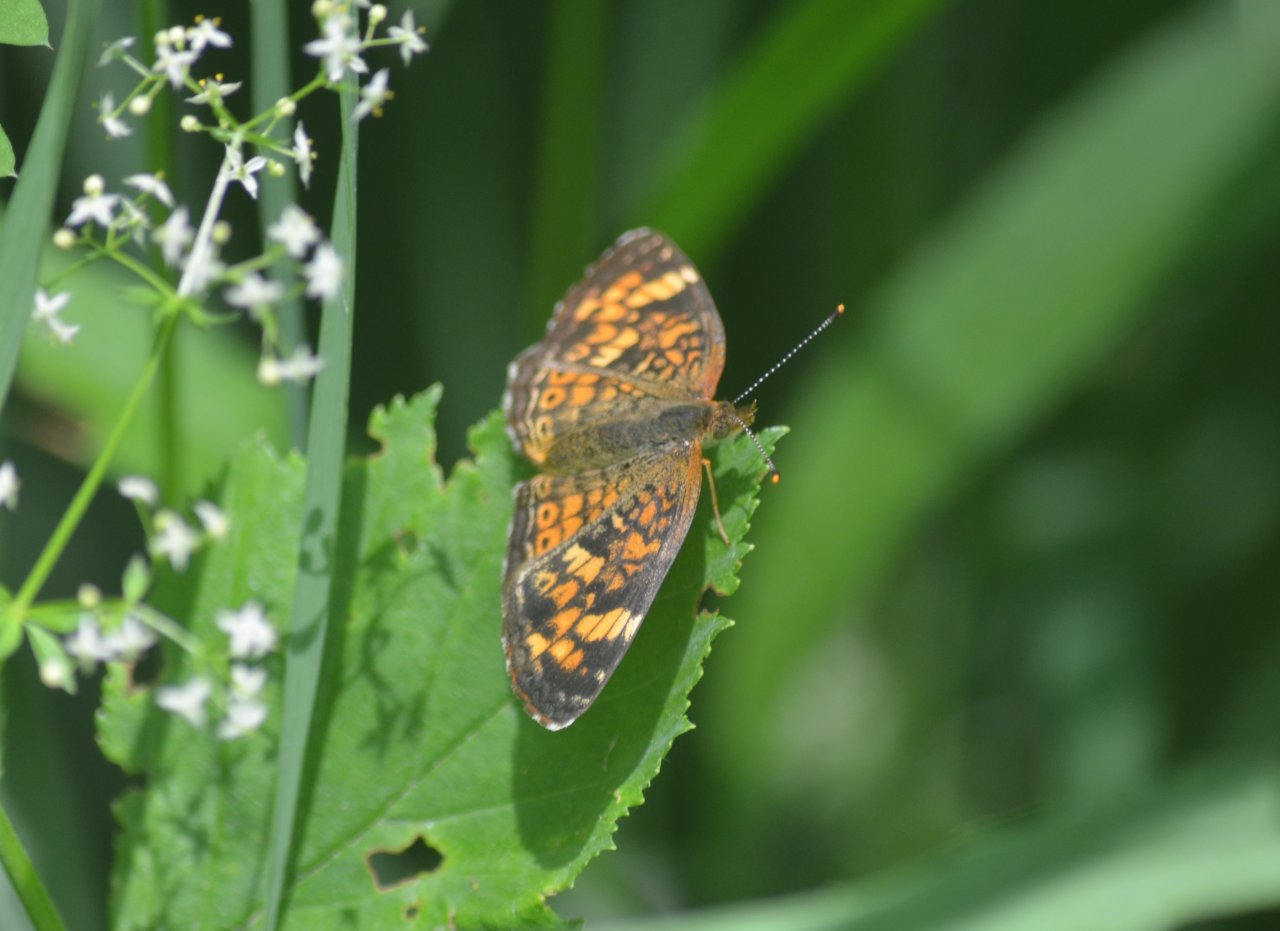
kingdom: Animalia
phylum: Arthropoda
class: Insecta
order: Lepidoptera
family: Nymphalidae
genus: Phyciodes
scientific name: Phyciodes tharos
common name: Northern Crescent
